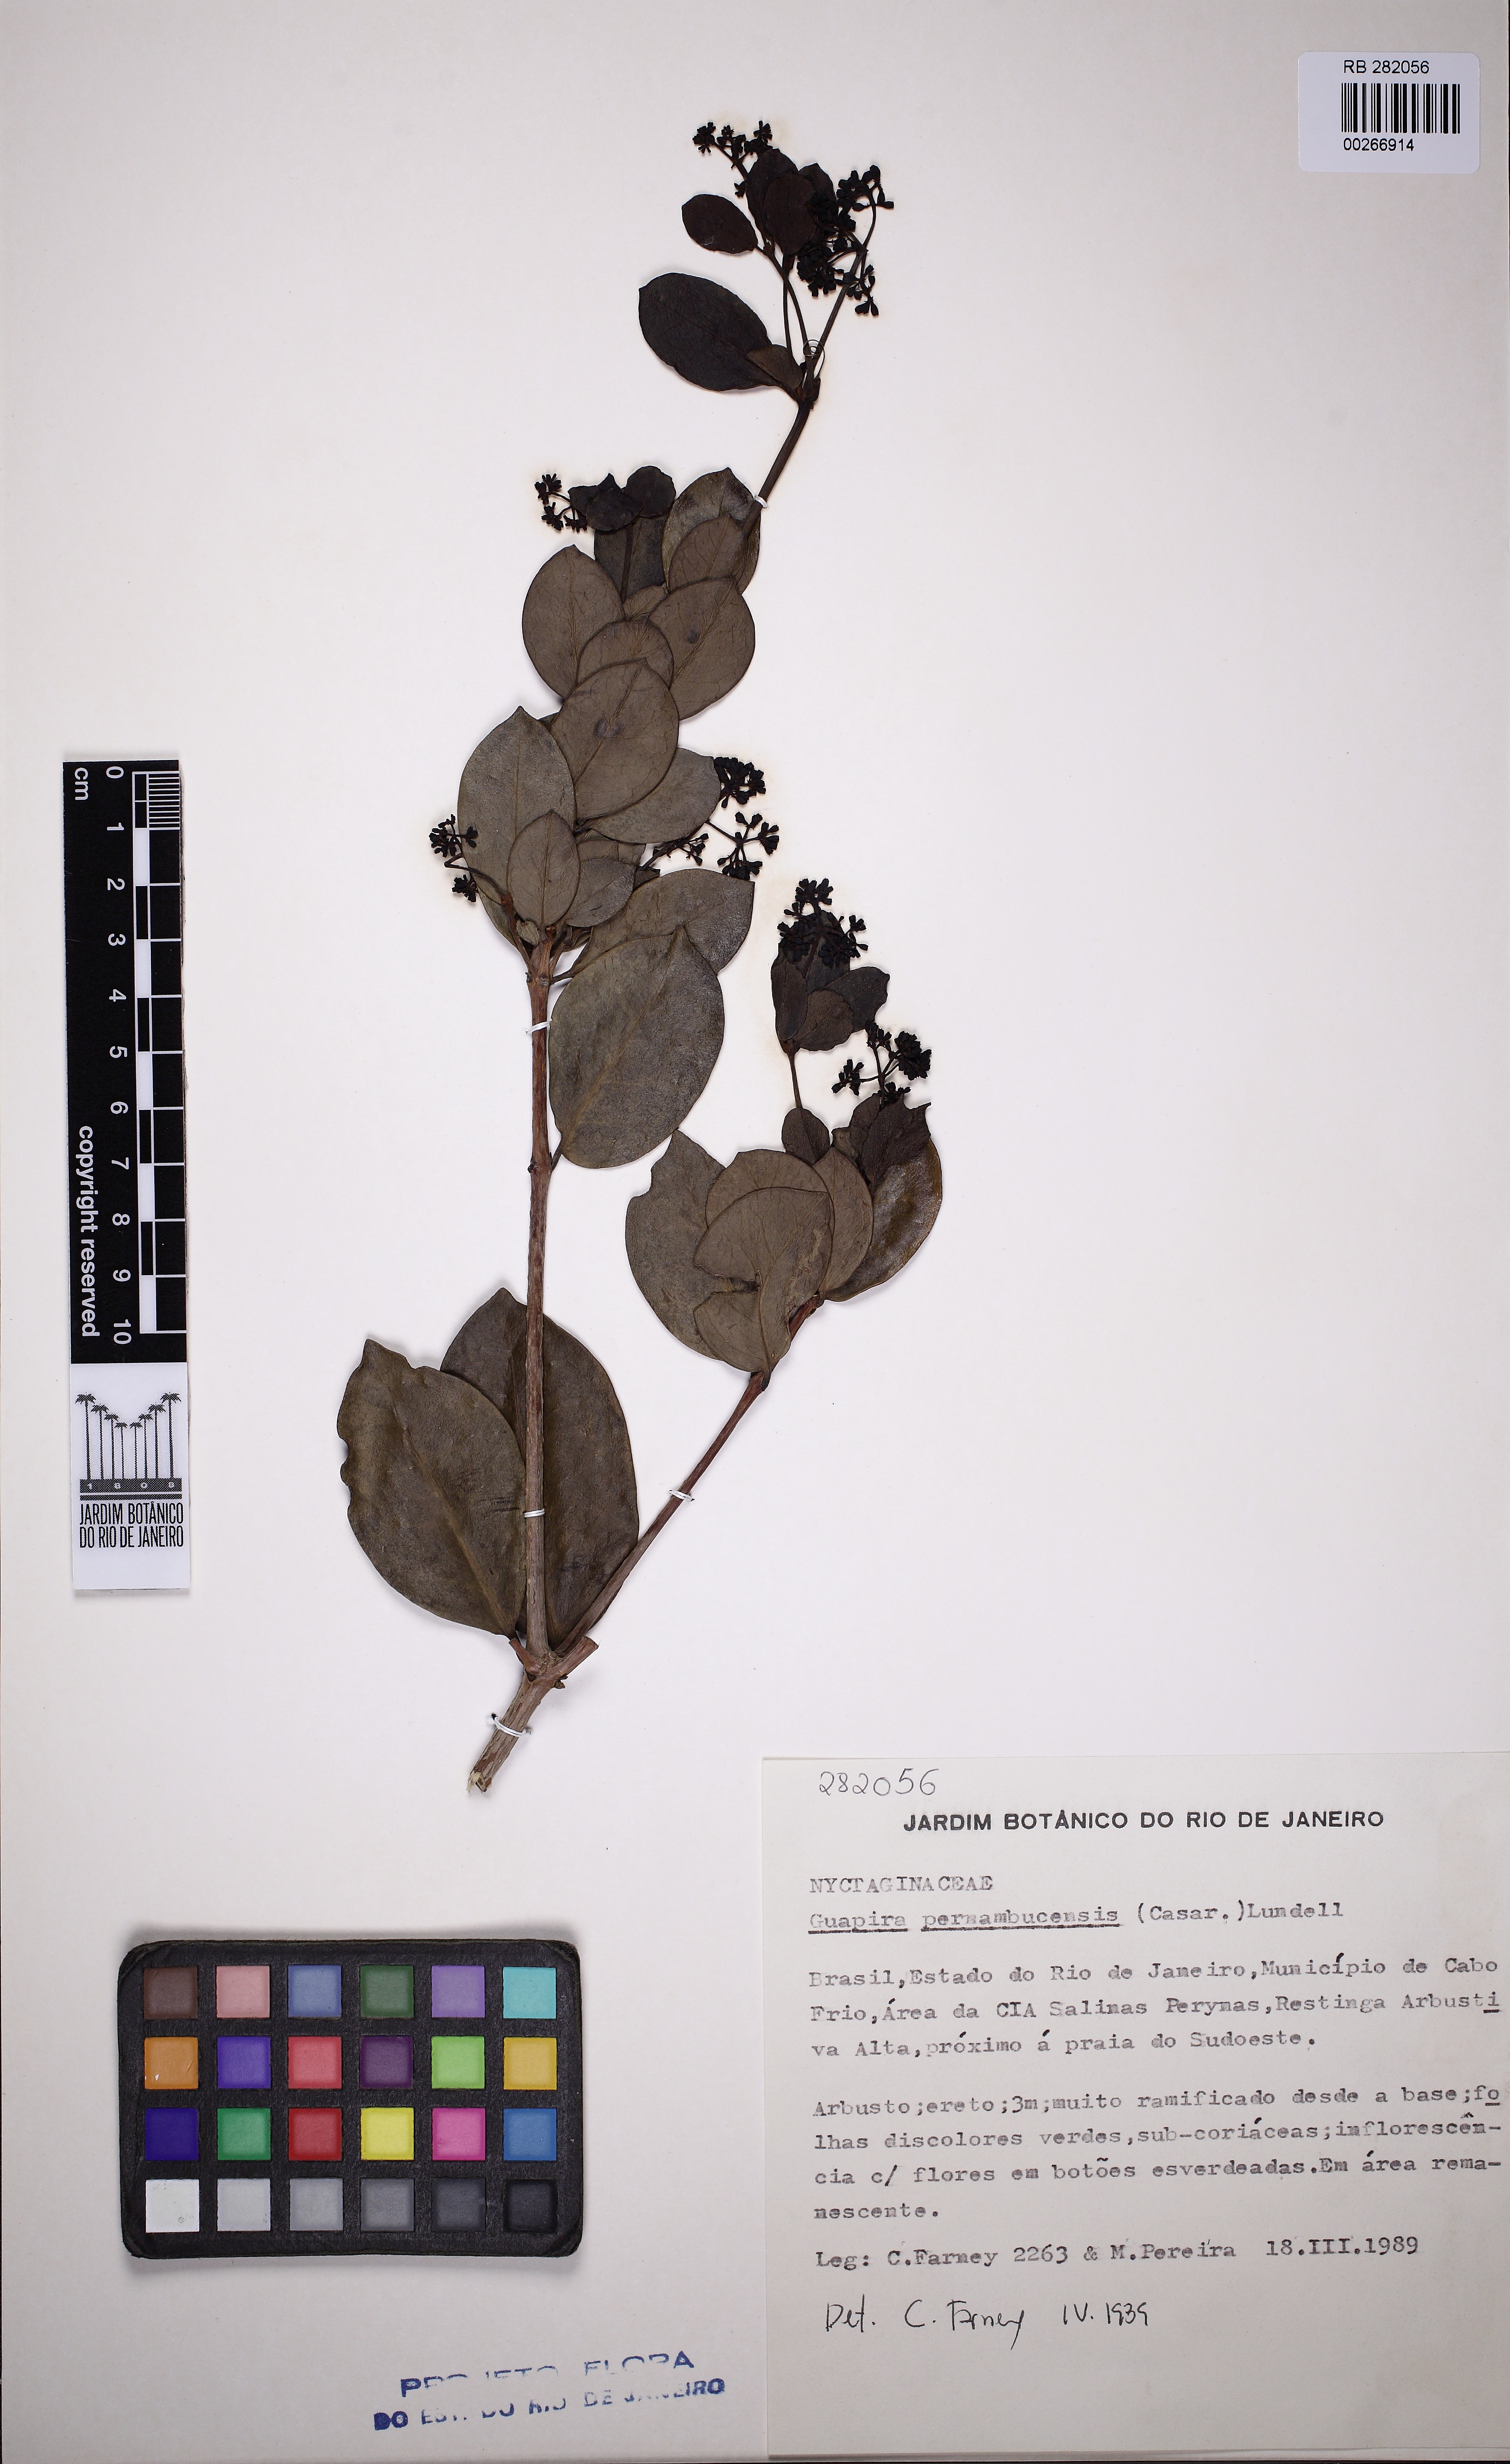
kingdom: Plantae
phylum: Tracheophyta
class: Magnoliopsida
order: Caryophyllales
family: Nyctaginaceae
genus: Guapira
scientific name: Guapira pernambucensis
